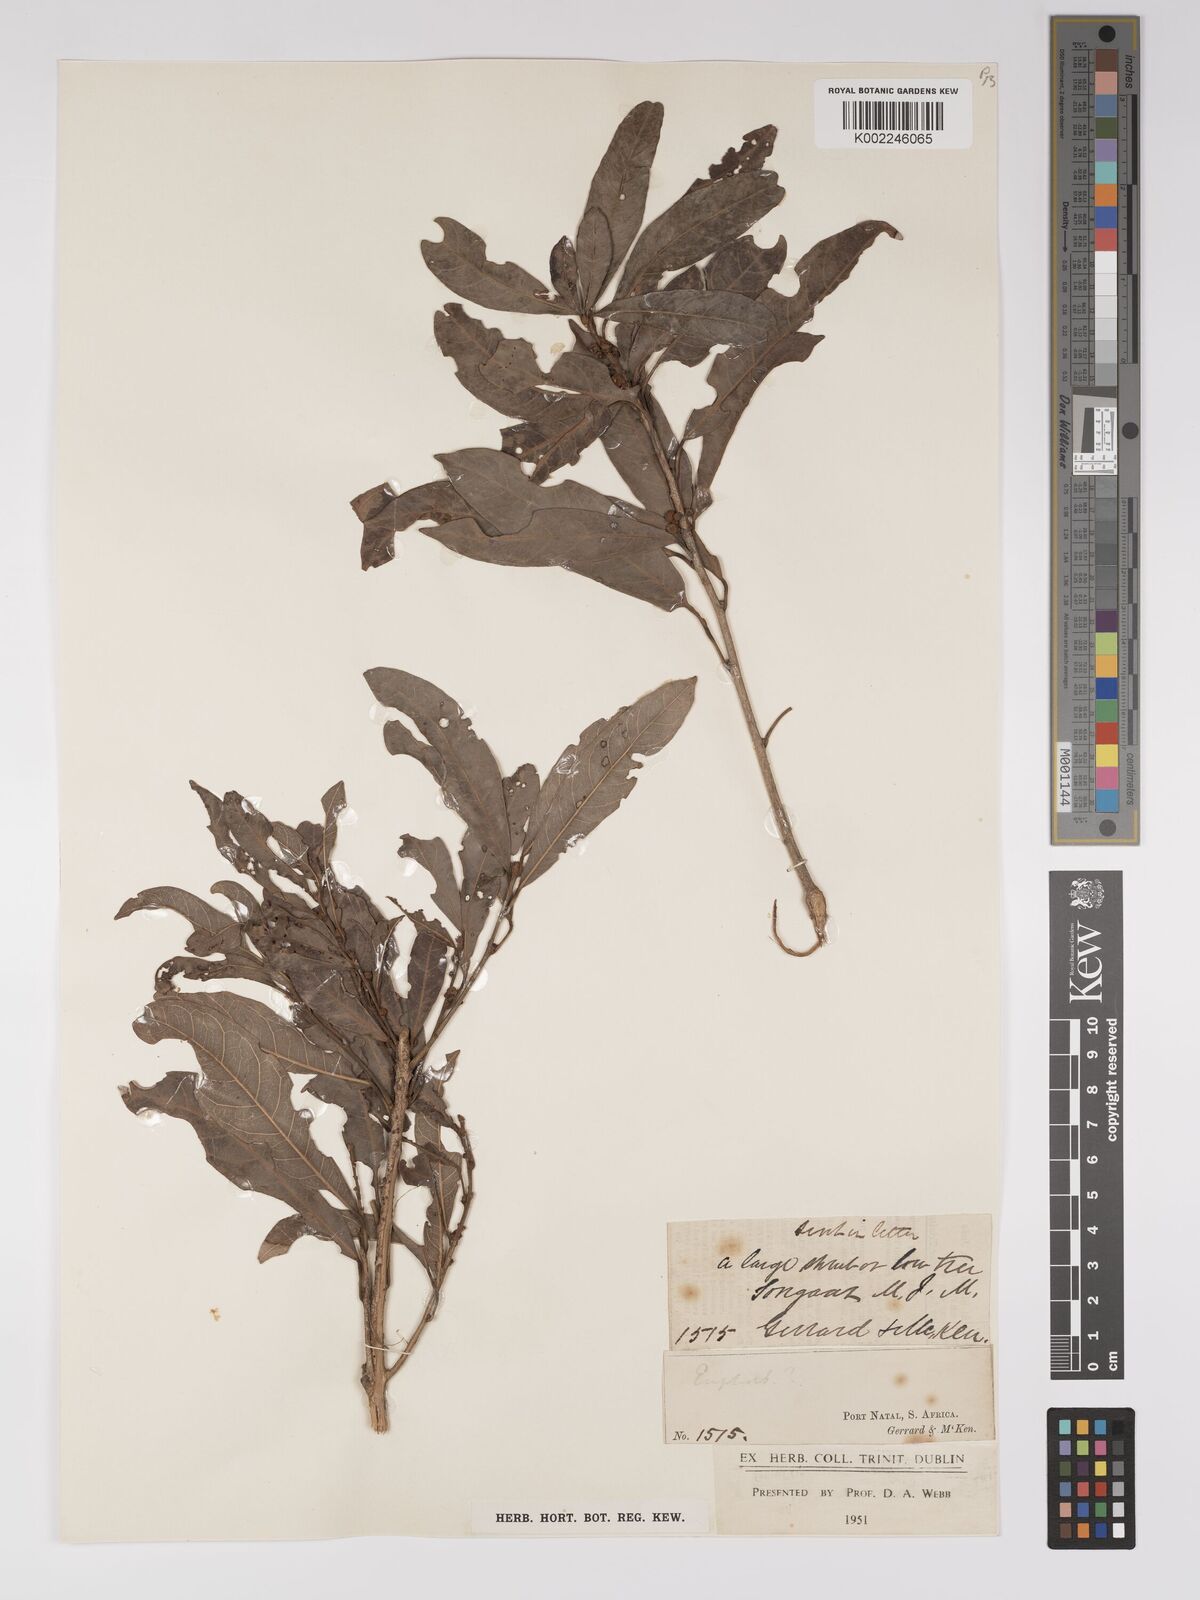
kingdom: Plantae
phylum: Tracheophyta
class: Magnoliopsida
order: Malpighiales
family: Euphorbiaceae
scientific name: Euphorbiaceae
